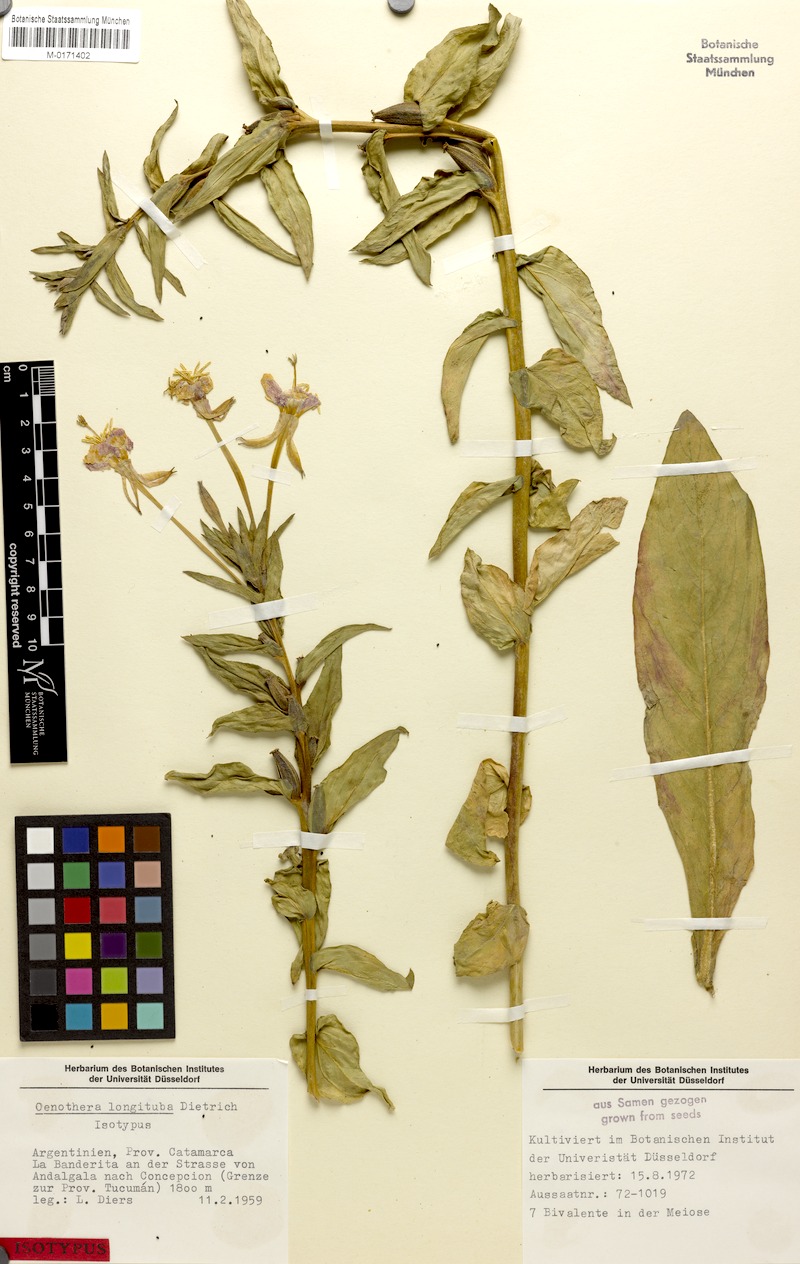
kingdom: Plantae
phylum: Tracheophyta
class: Magnoliopsida
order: Myrtales
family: Onagraceae
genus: Oenothera
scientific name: Oenothera longituba
